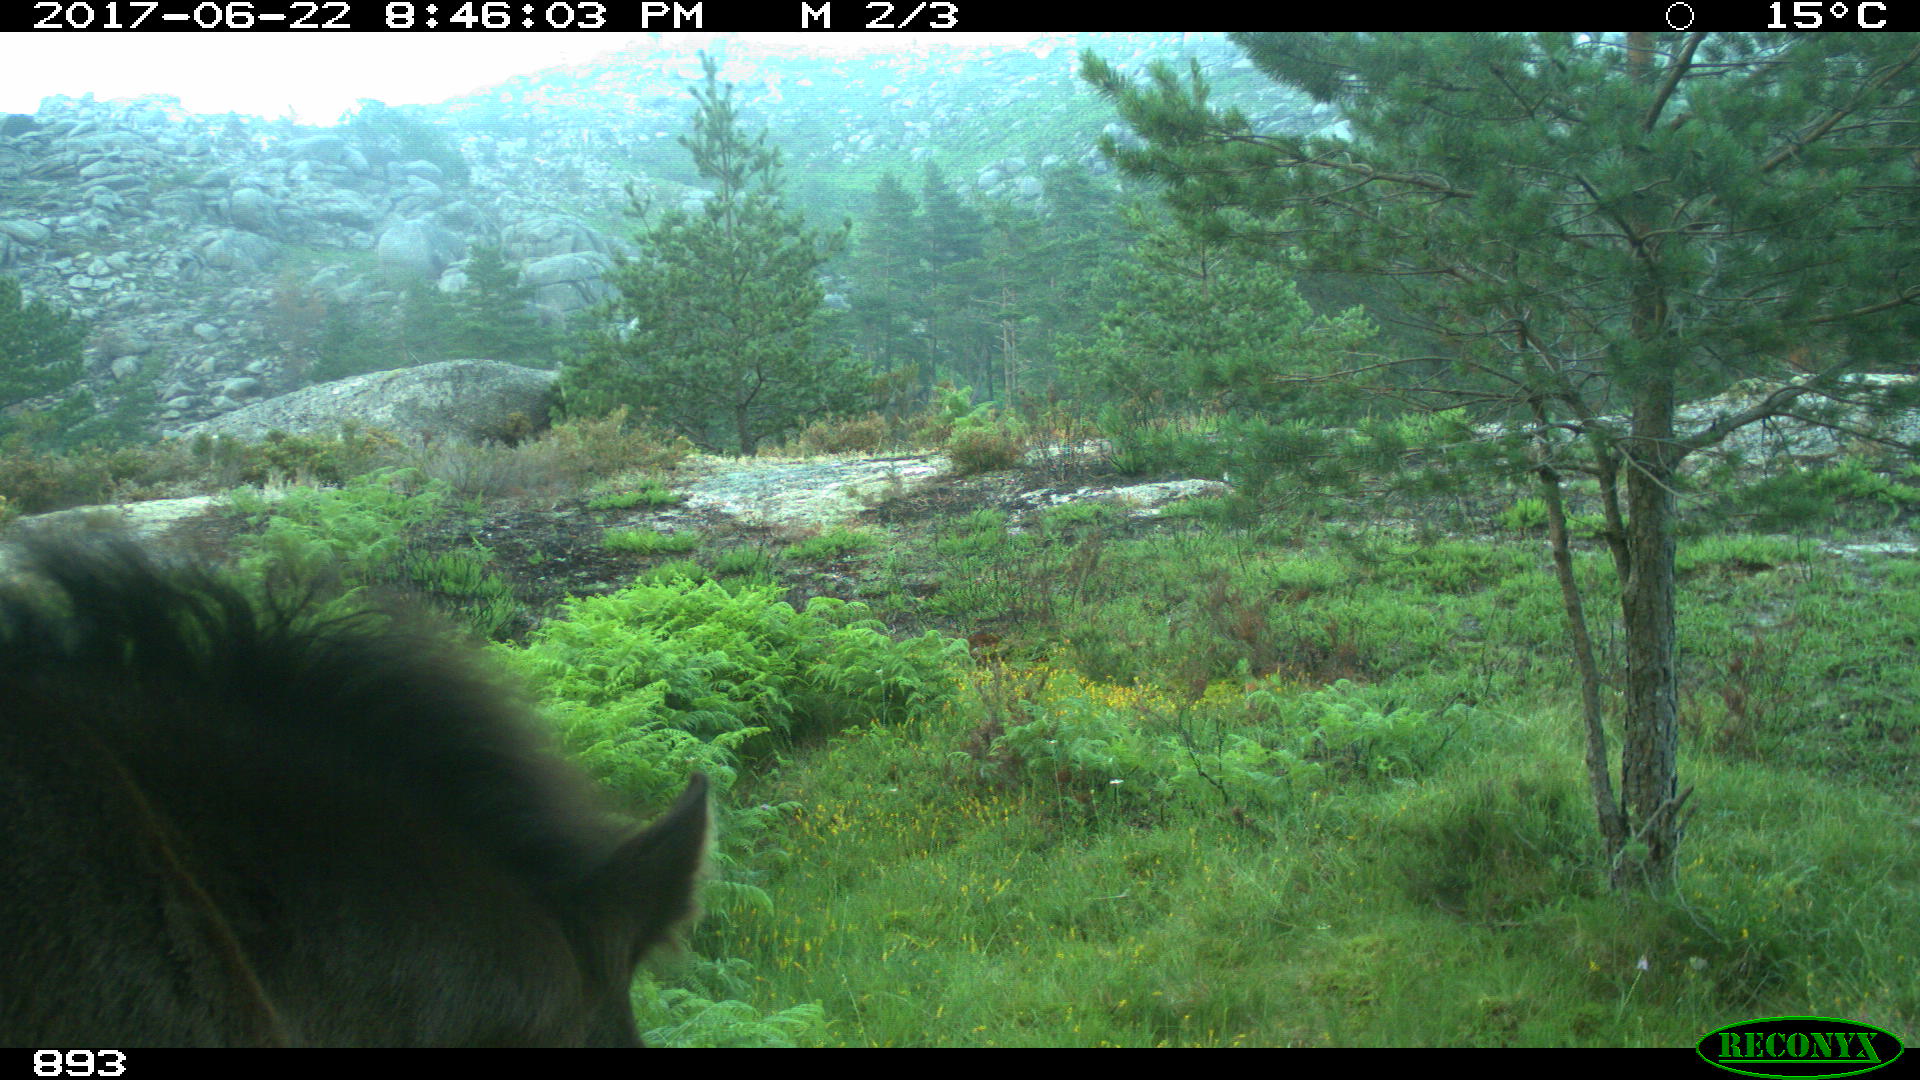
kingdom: Animalia
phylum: Chordata
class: Mammalia
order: Perissodactyla
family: Equidae
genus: Equus
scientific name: Equus caballus
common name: Horse
